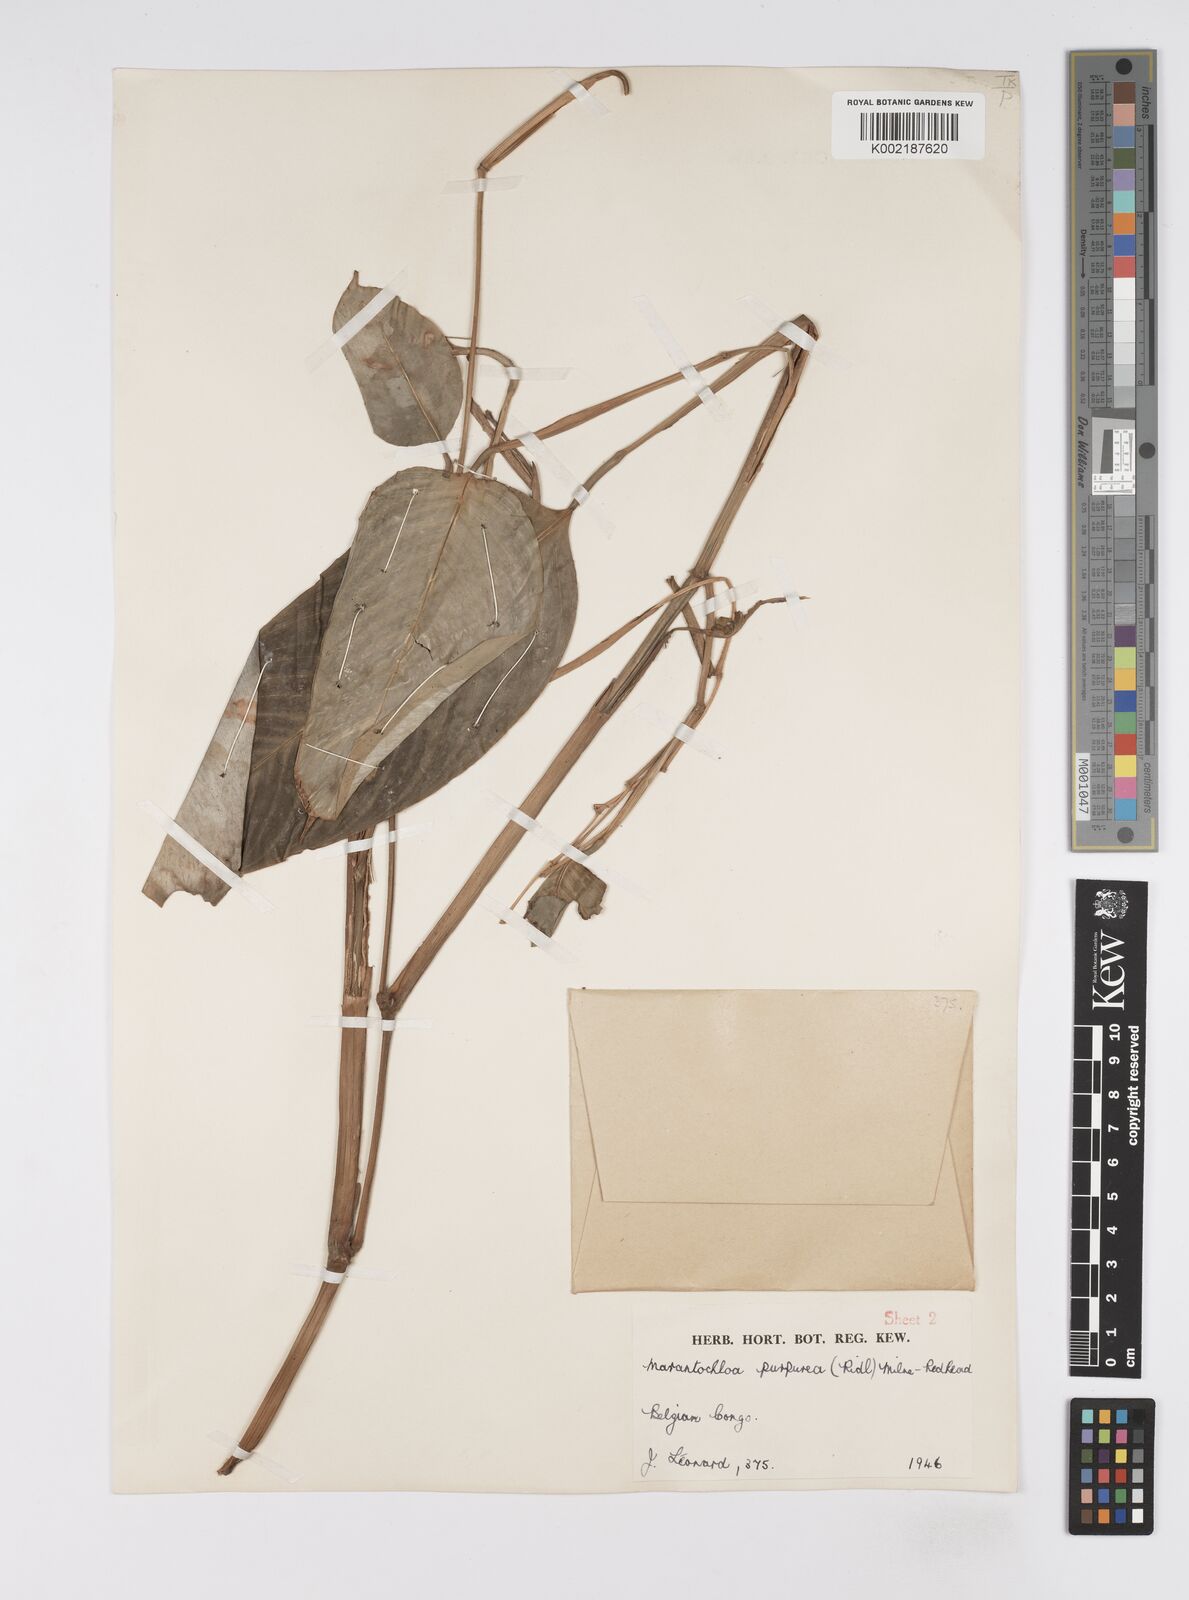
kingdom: Plantae
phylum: Tracheophyta
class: Liliopsida
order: Zingiberales
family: Marantaceae
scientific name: Marantaceae
